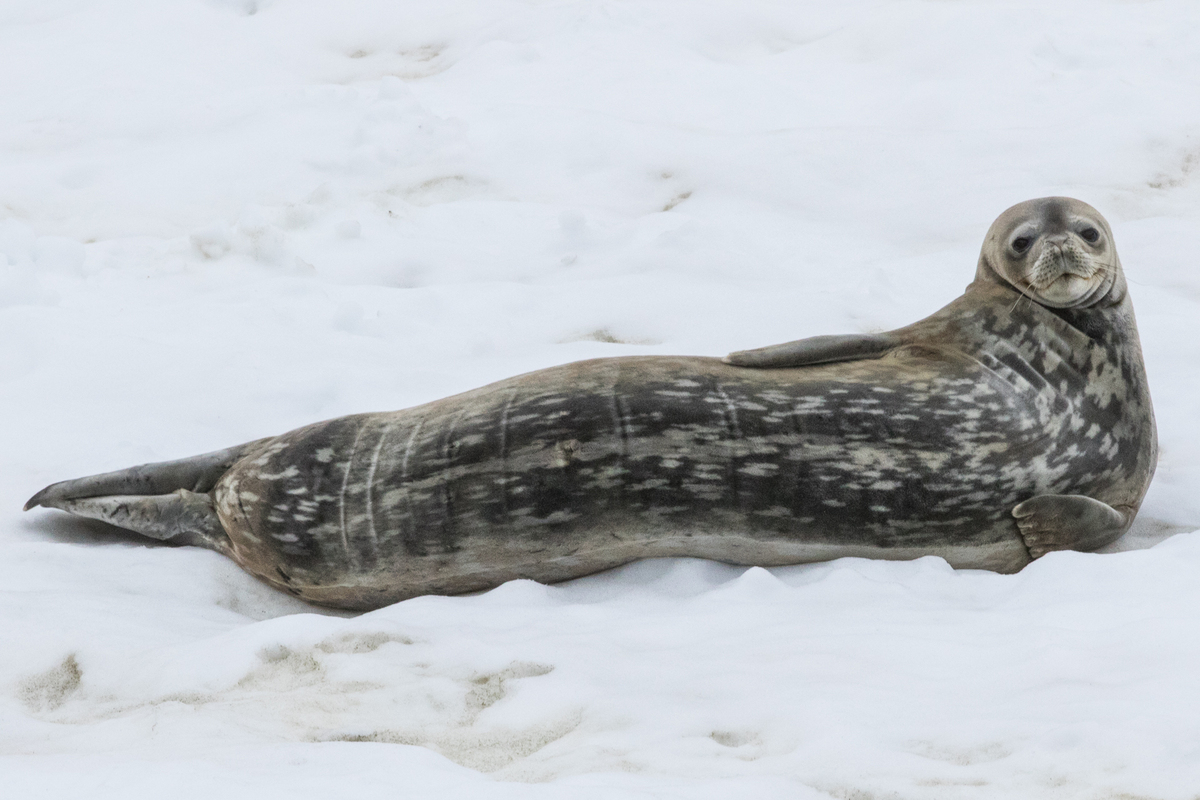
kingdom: Animalia
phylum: Chordata
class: Mammalia
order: Carnivora
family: Phocidae
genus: Leptonychotes
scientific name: Leptonychotes weddellii
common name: Weddell Seal
